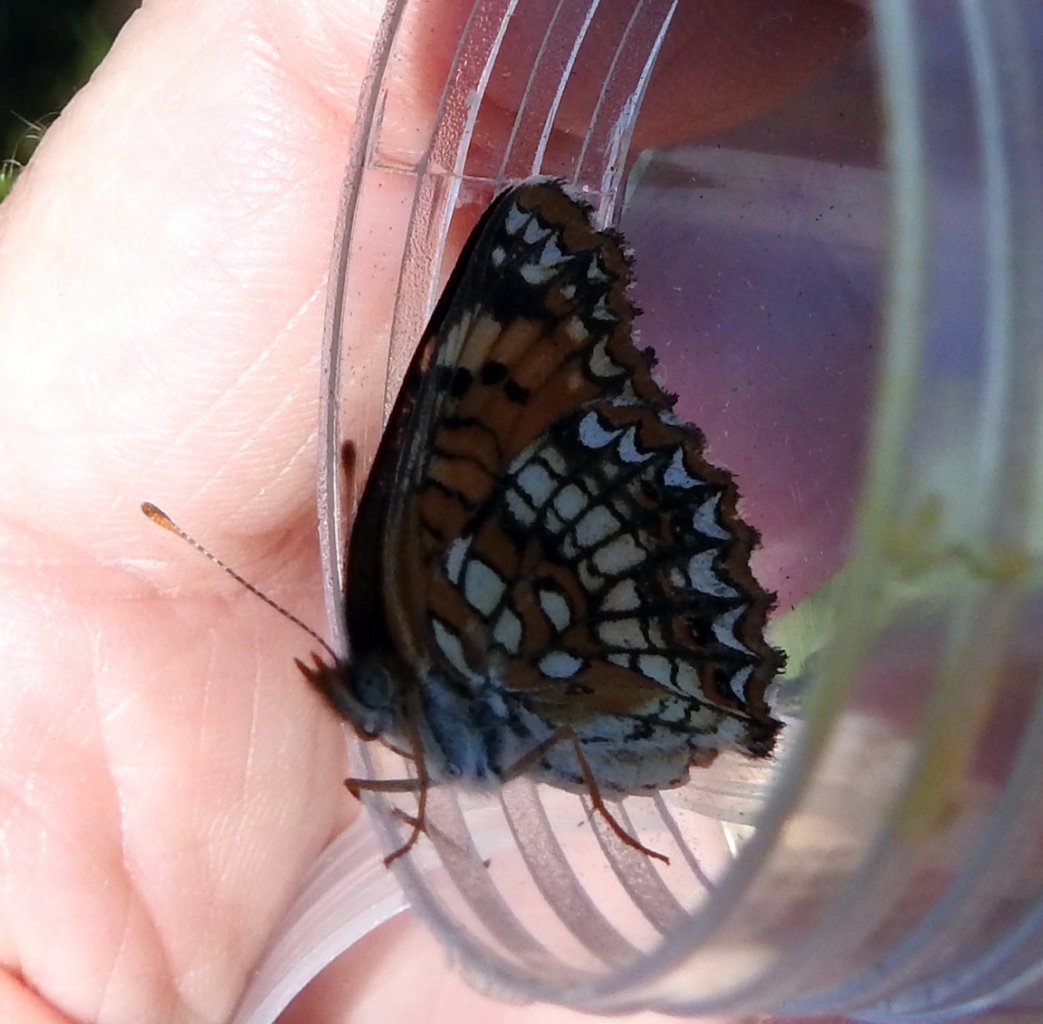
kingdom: Animalia
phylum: Arthropoda
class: Insecta
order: Lepidoptera
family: Nymphalidae
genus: Chlosyne
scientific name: Chlosyne harrisii
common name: Harris's Checkerspot
